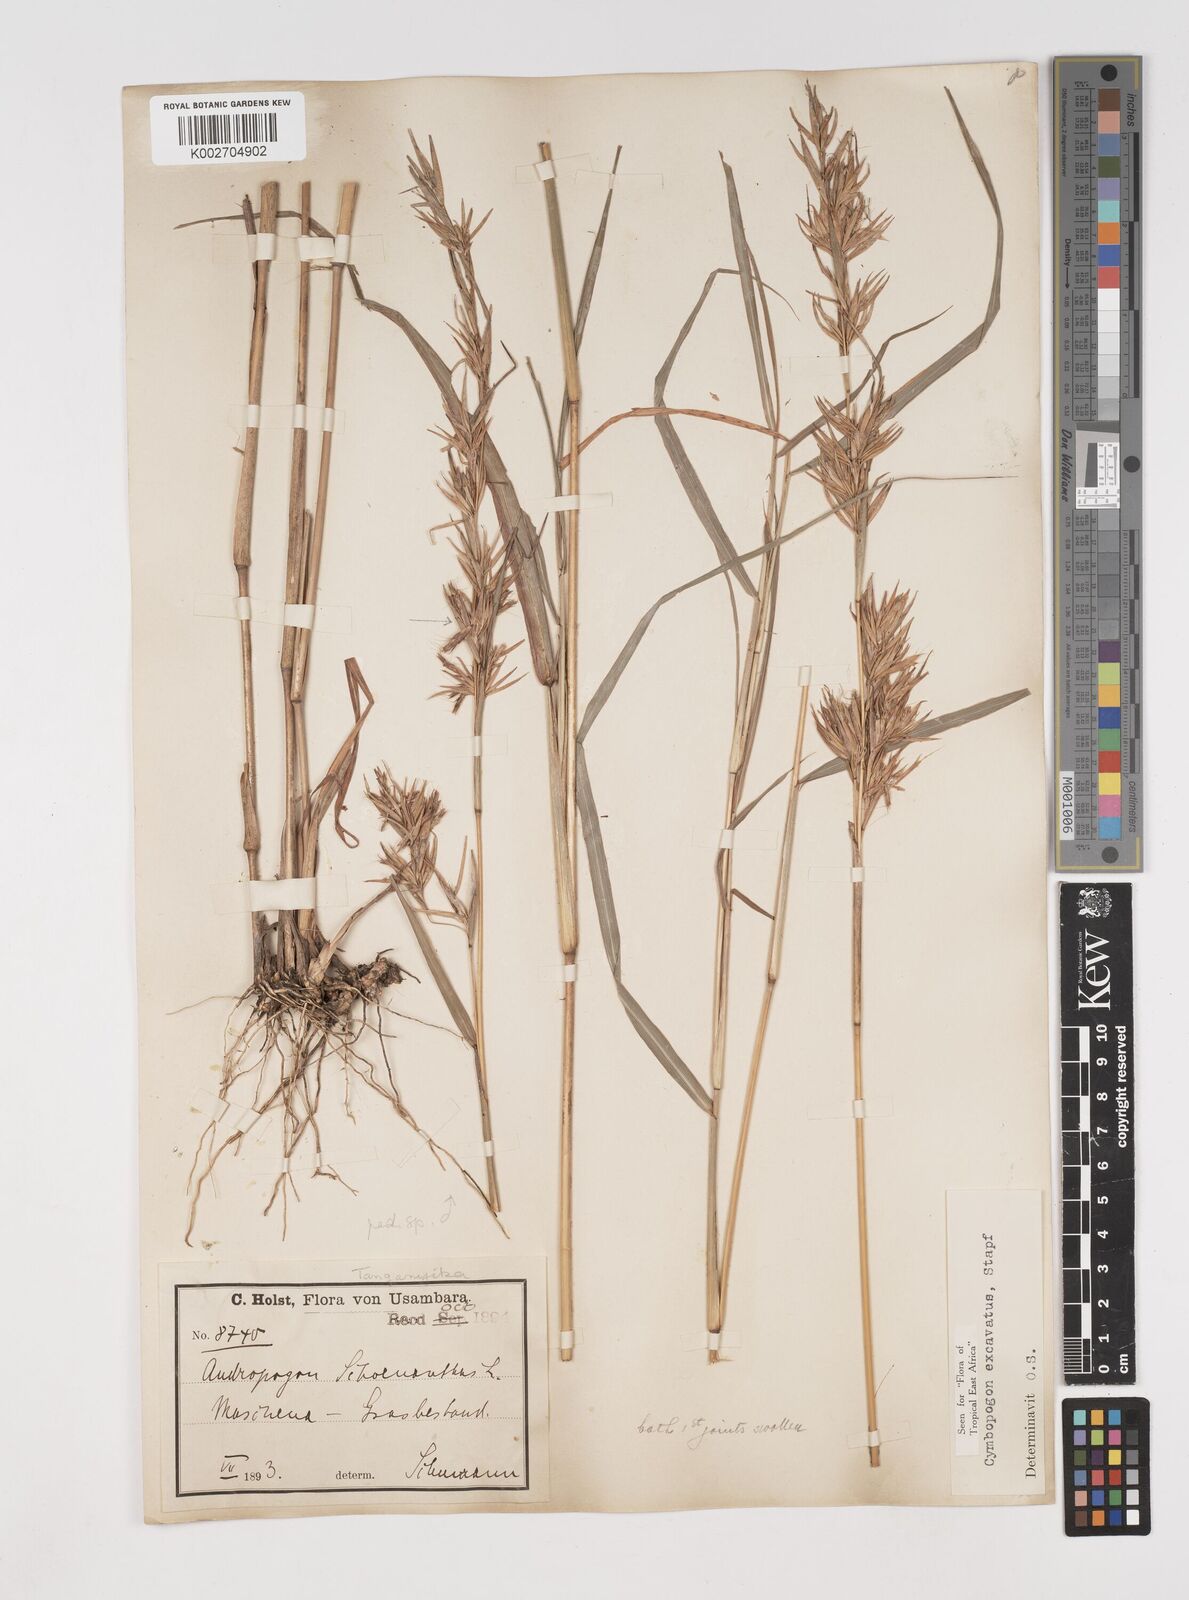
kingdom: Plantae
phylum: Tracheophyta
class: Liliopsida
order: Poales
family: Poaceae
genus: Cymbopogon
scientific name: Cymbopogon caesius
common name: Kachi grass
